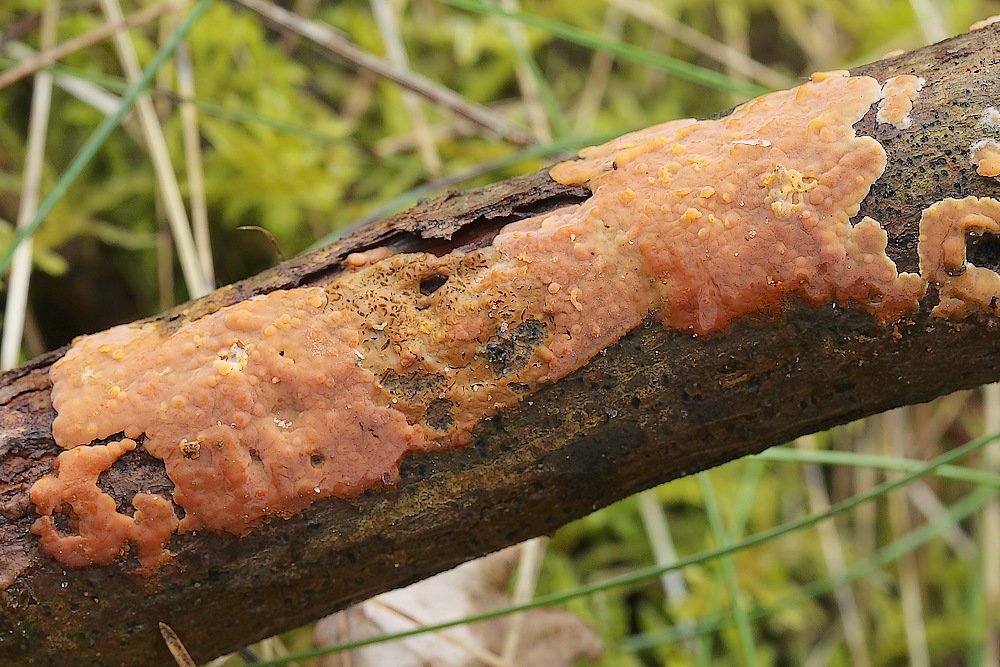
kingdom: Fungi
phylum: Basidiomycota
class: Agaricomycetes
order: Russulales
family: Peniophoraceae
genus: Peniophora
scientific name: Peniophora incarnata
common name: laksefarvet voksskind
